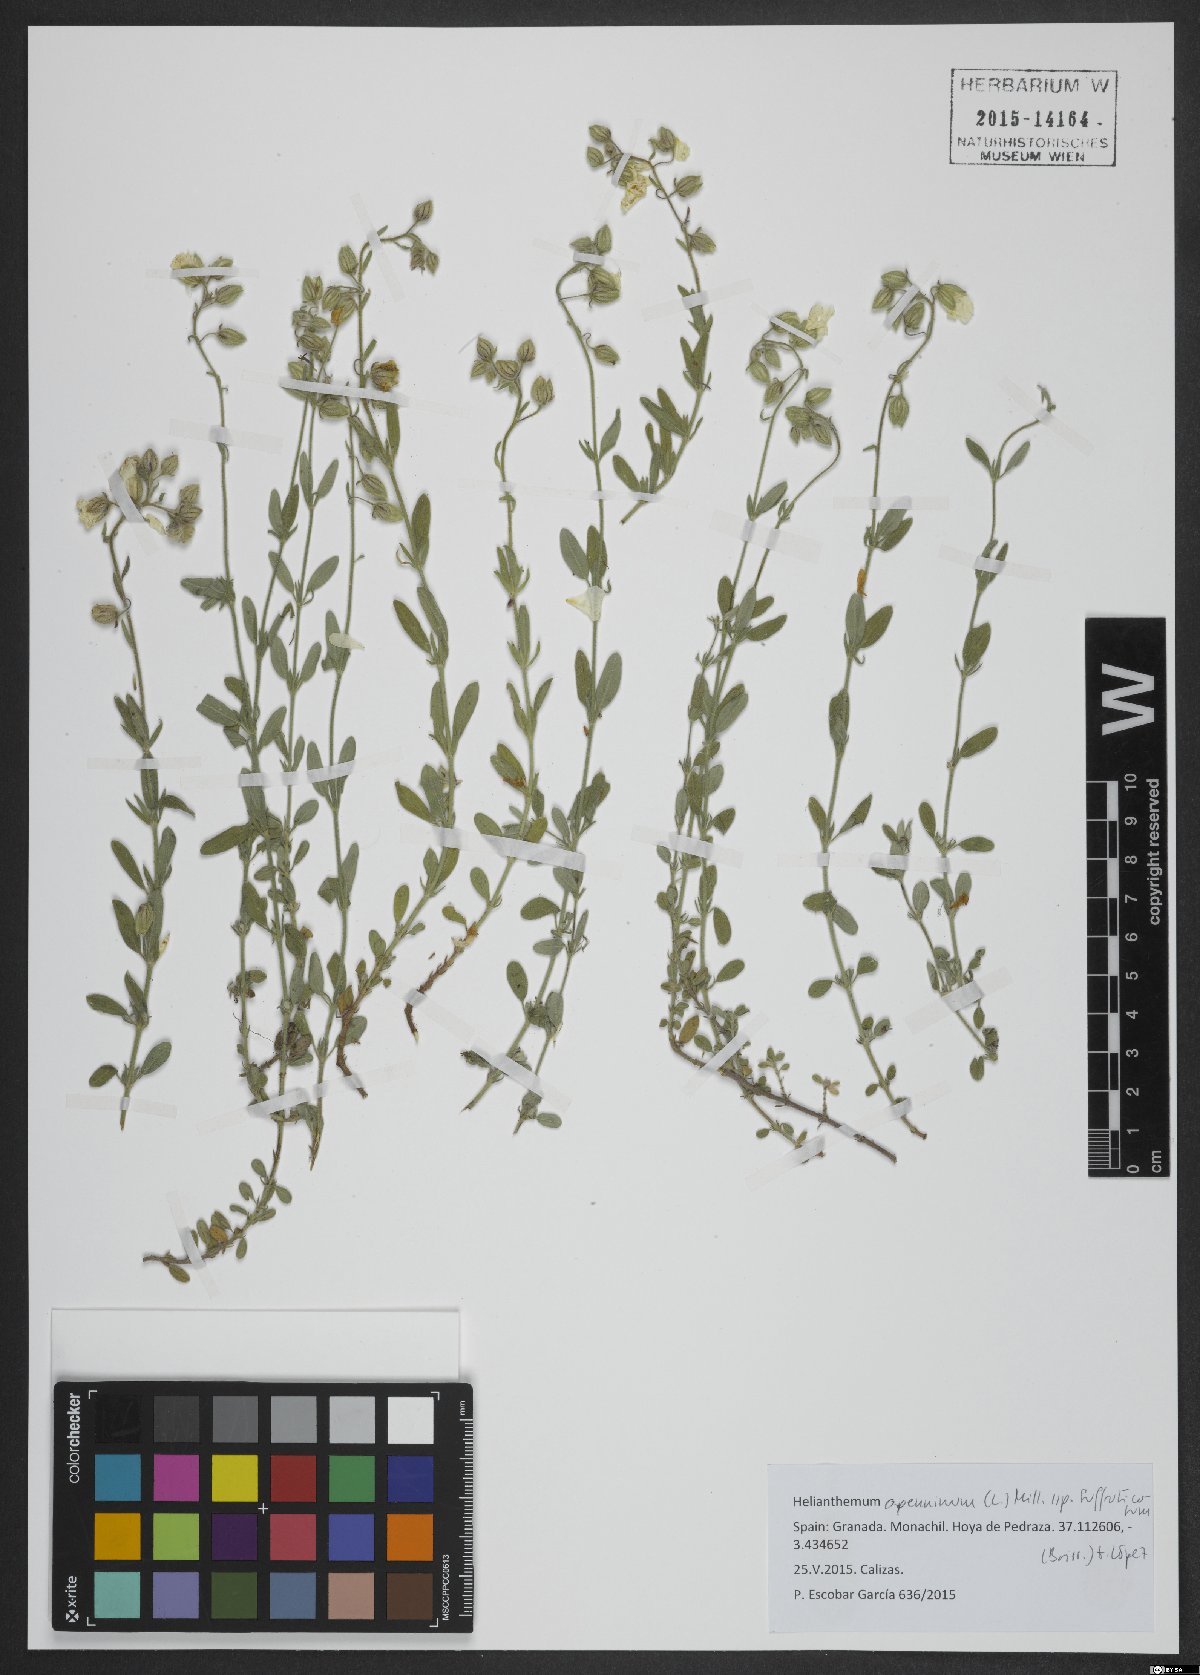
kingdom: Plantae
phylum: Tracheophyta
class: Magnoliopsida
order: Malvales
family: Cistaceae
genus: Helianthemum
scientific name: Helianthemum croceum
